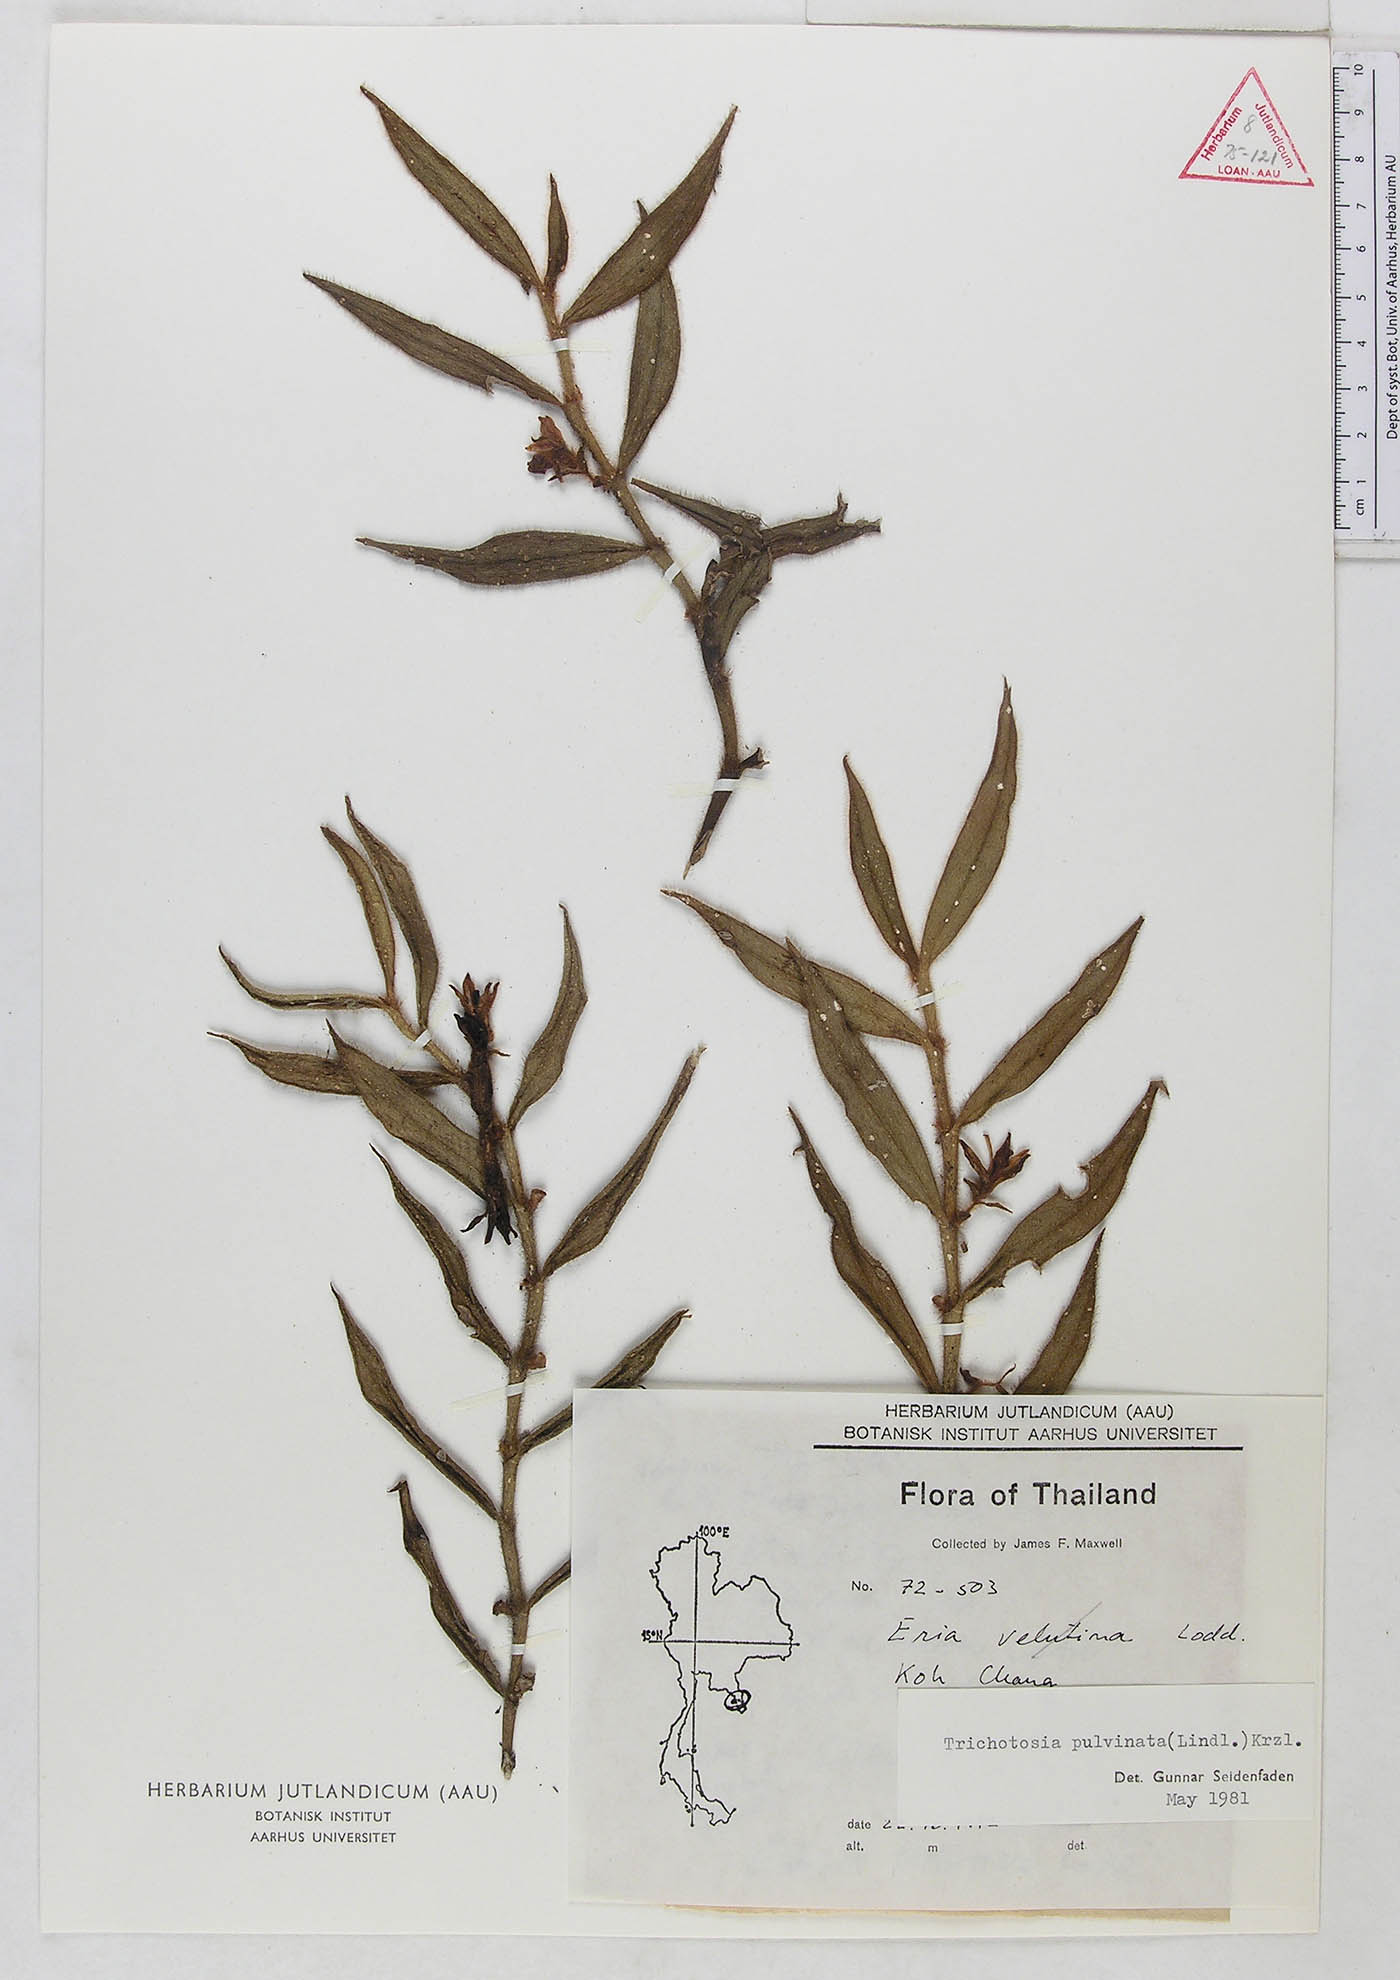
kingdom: Plantae
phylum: Tracheophyta
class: Liliopsida
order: Asparagales
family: Orchidaceae
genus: Trichotosia
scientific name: Trichotosia pulvinata
